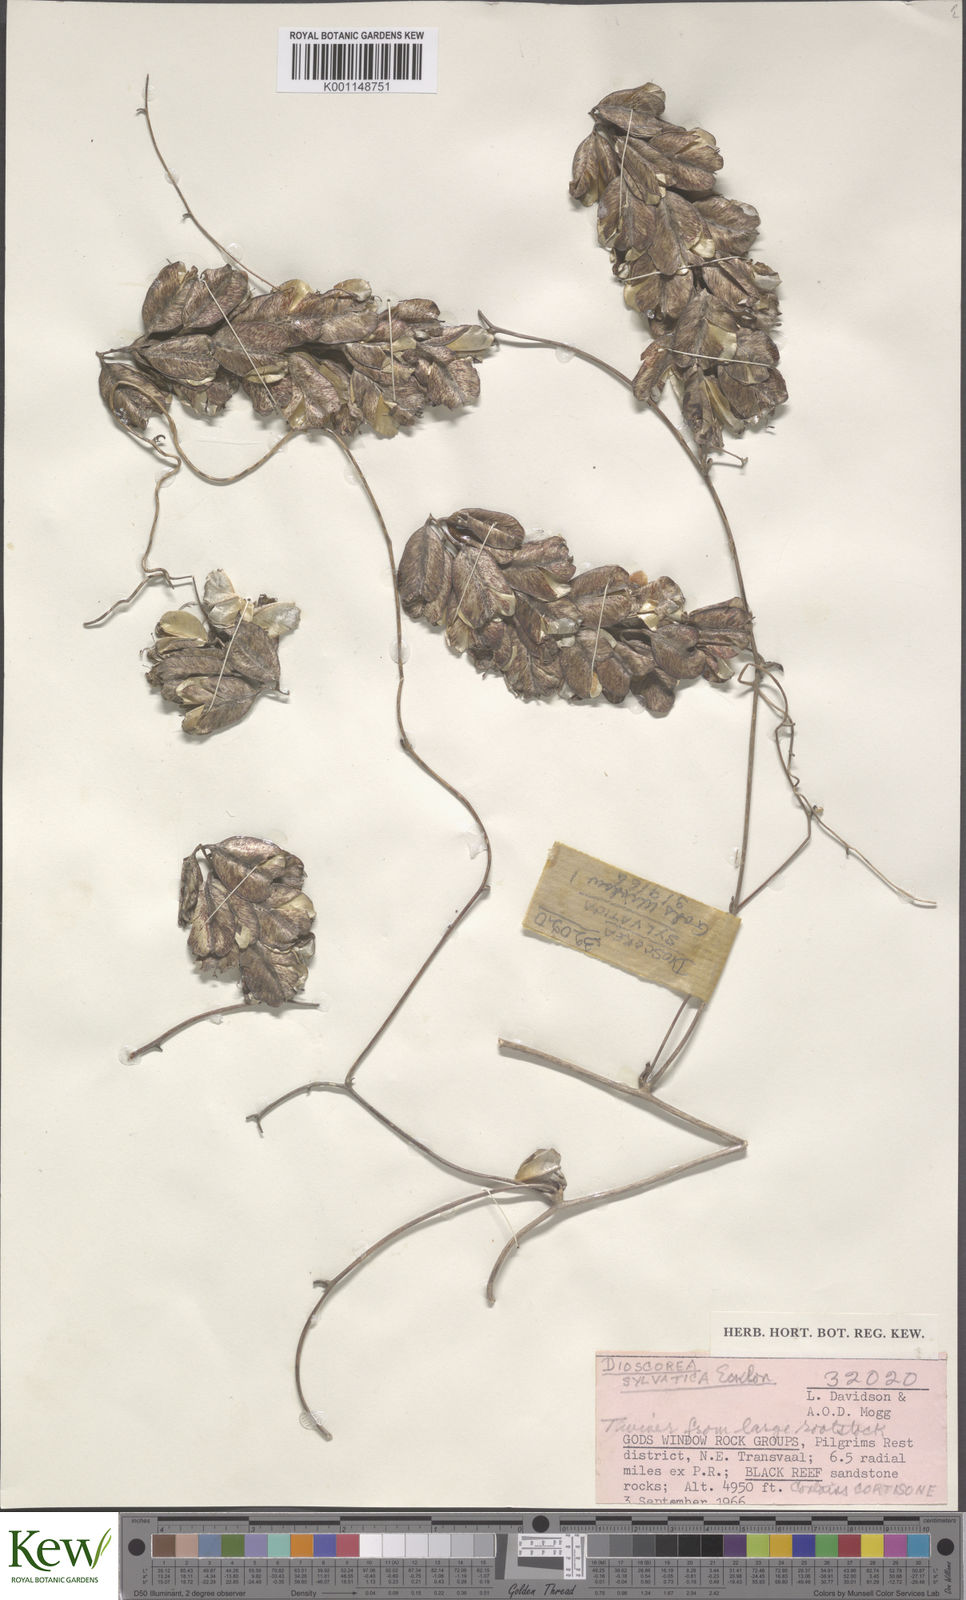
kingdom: Plantae
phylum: Tracheophyta
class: Liliopsida
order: Dioscoreales
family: Dioscoreaceae
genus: Dioscorea
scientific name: Dioscorea sylvatica
